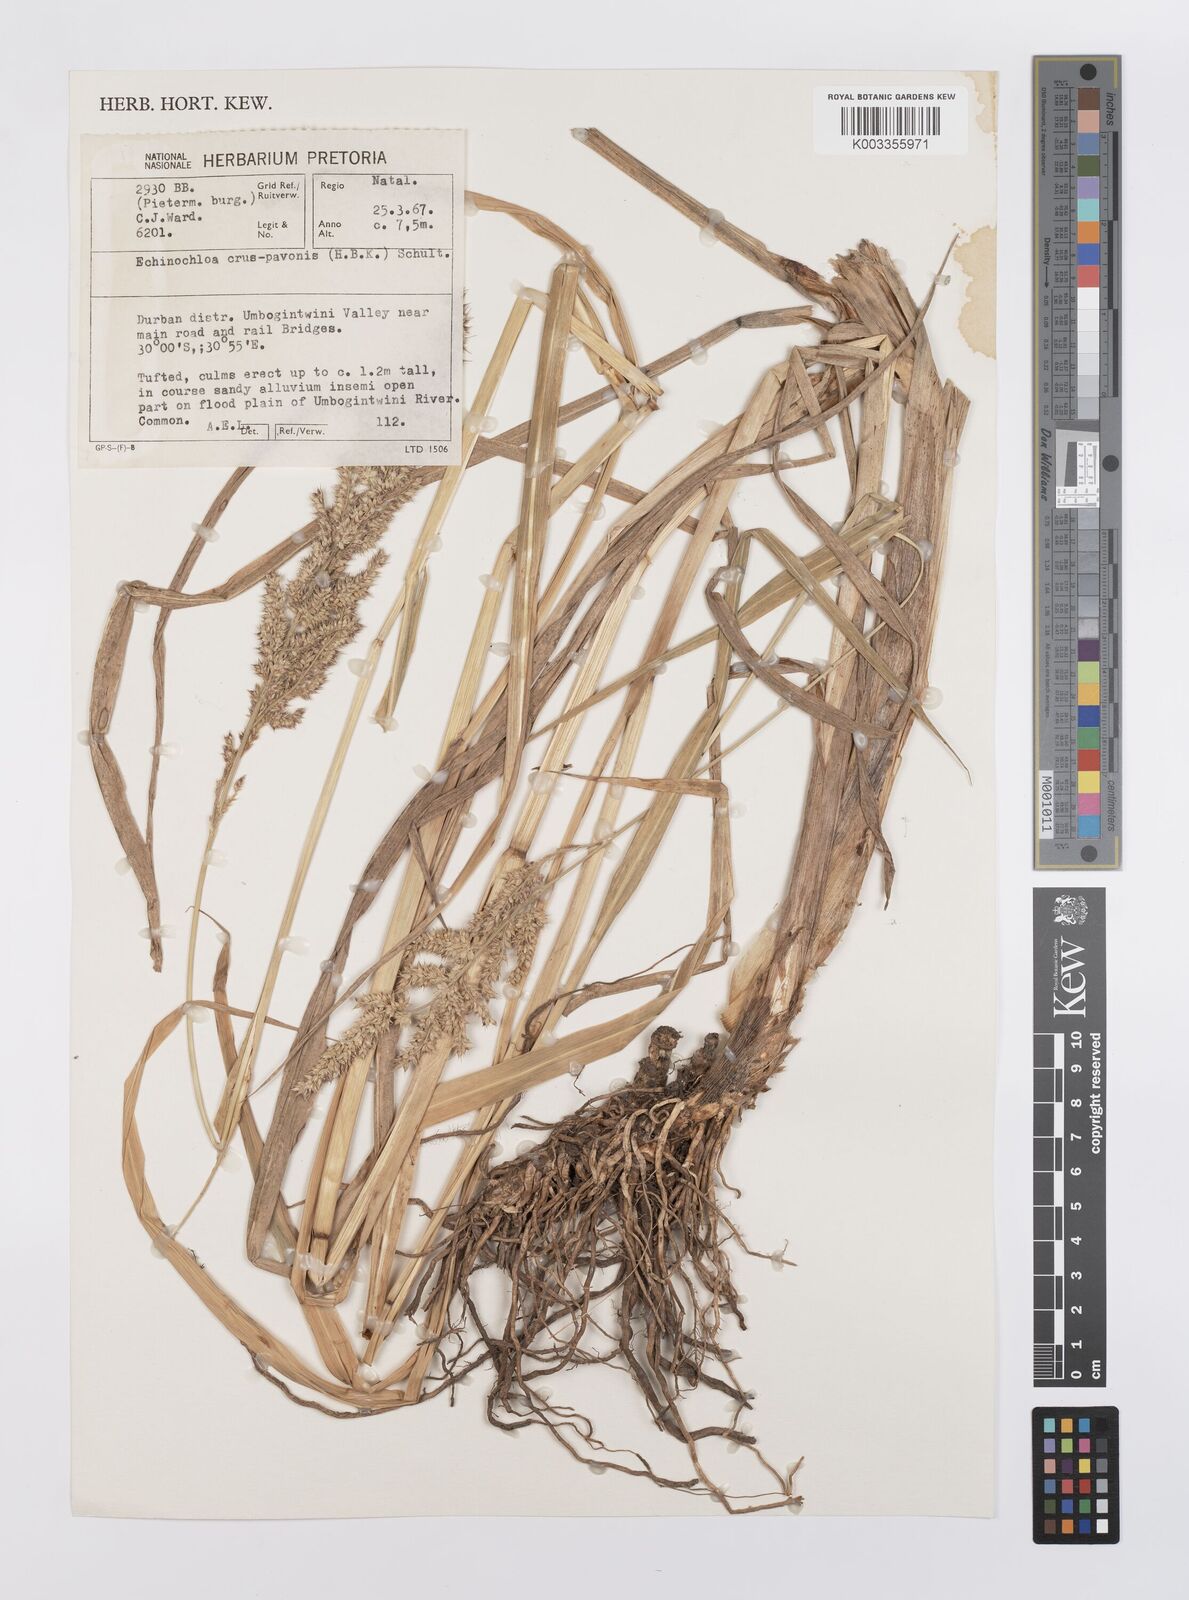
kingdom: Plantae
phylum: Tracheophyta
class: Liliopsida
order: Poales
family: Poaceae
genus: Echinochloa
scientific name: Echinochloa crus-pavonis
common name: Gulf cockspur grass
